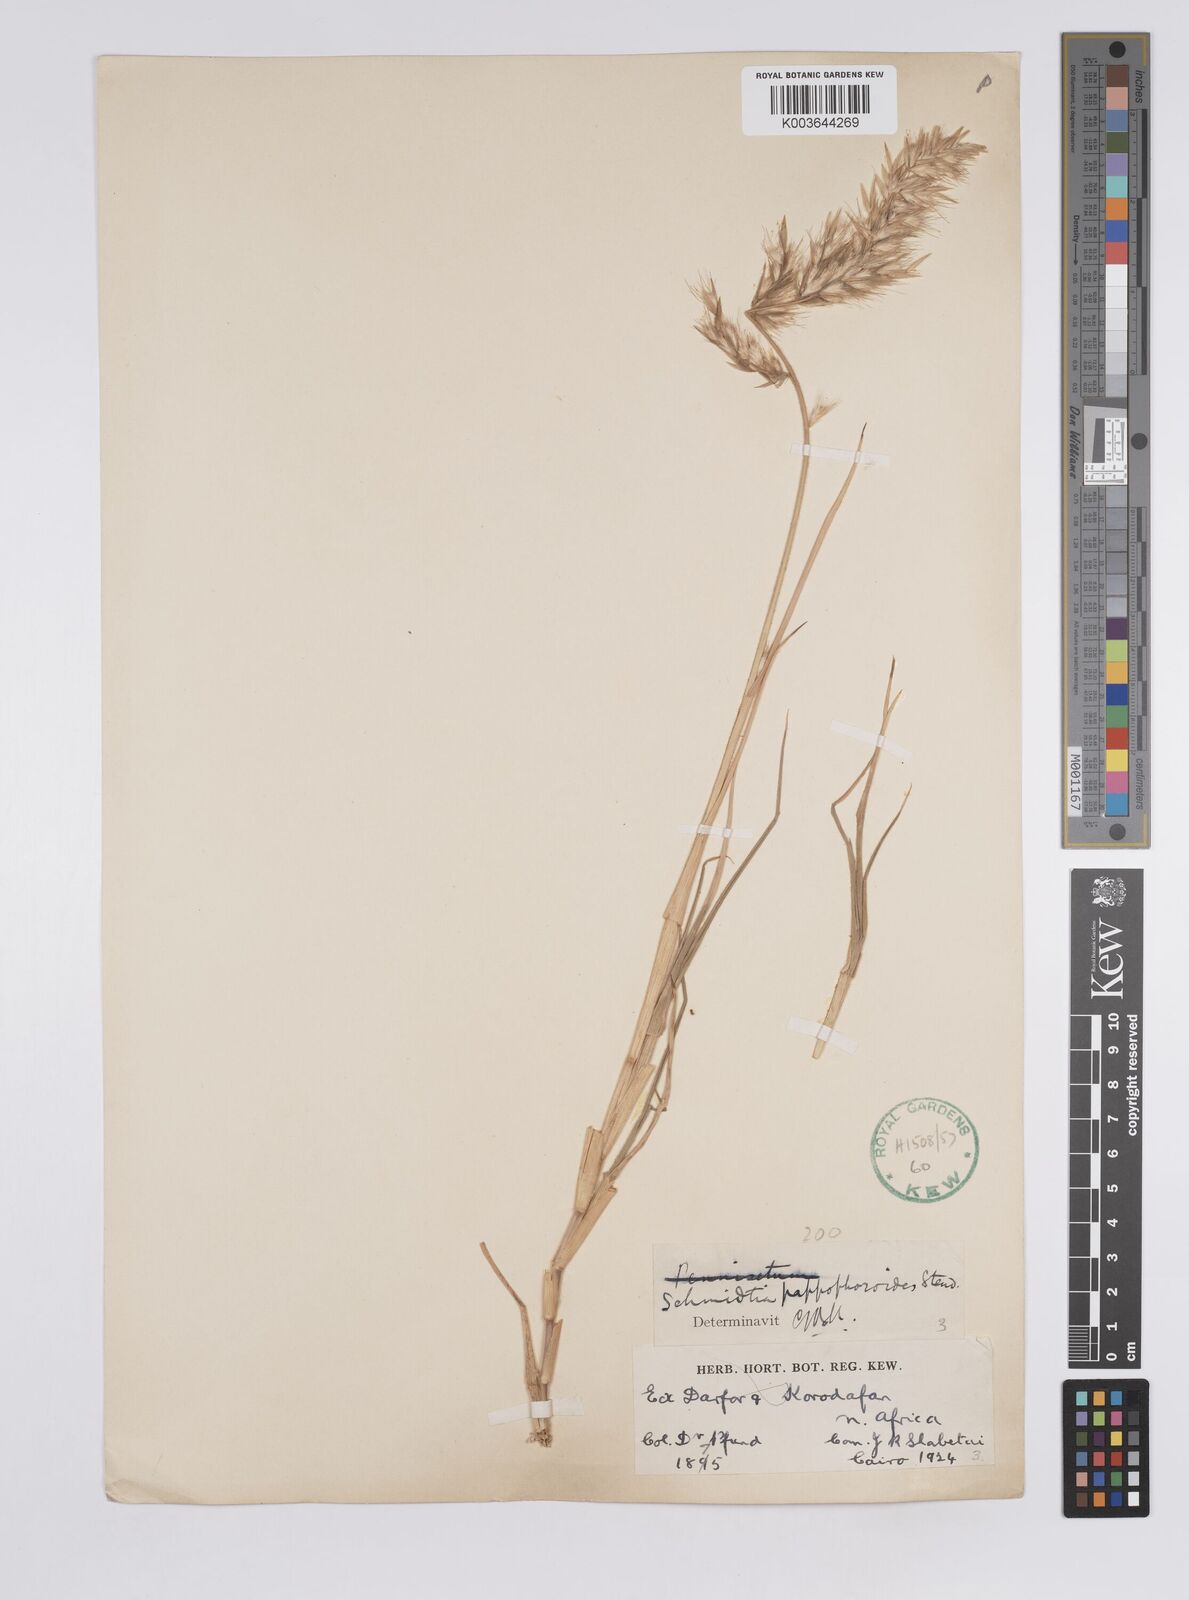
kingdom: Plantae
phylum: Tracheophyta
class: Liliopsida
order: Poales
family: Poaceae
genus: Schmidtia
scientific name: Schmidtia kalahariensis
